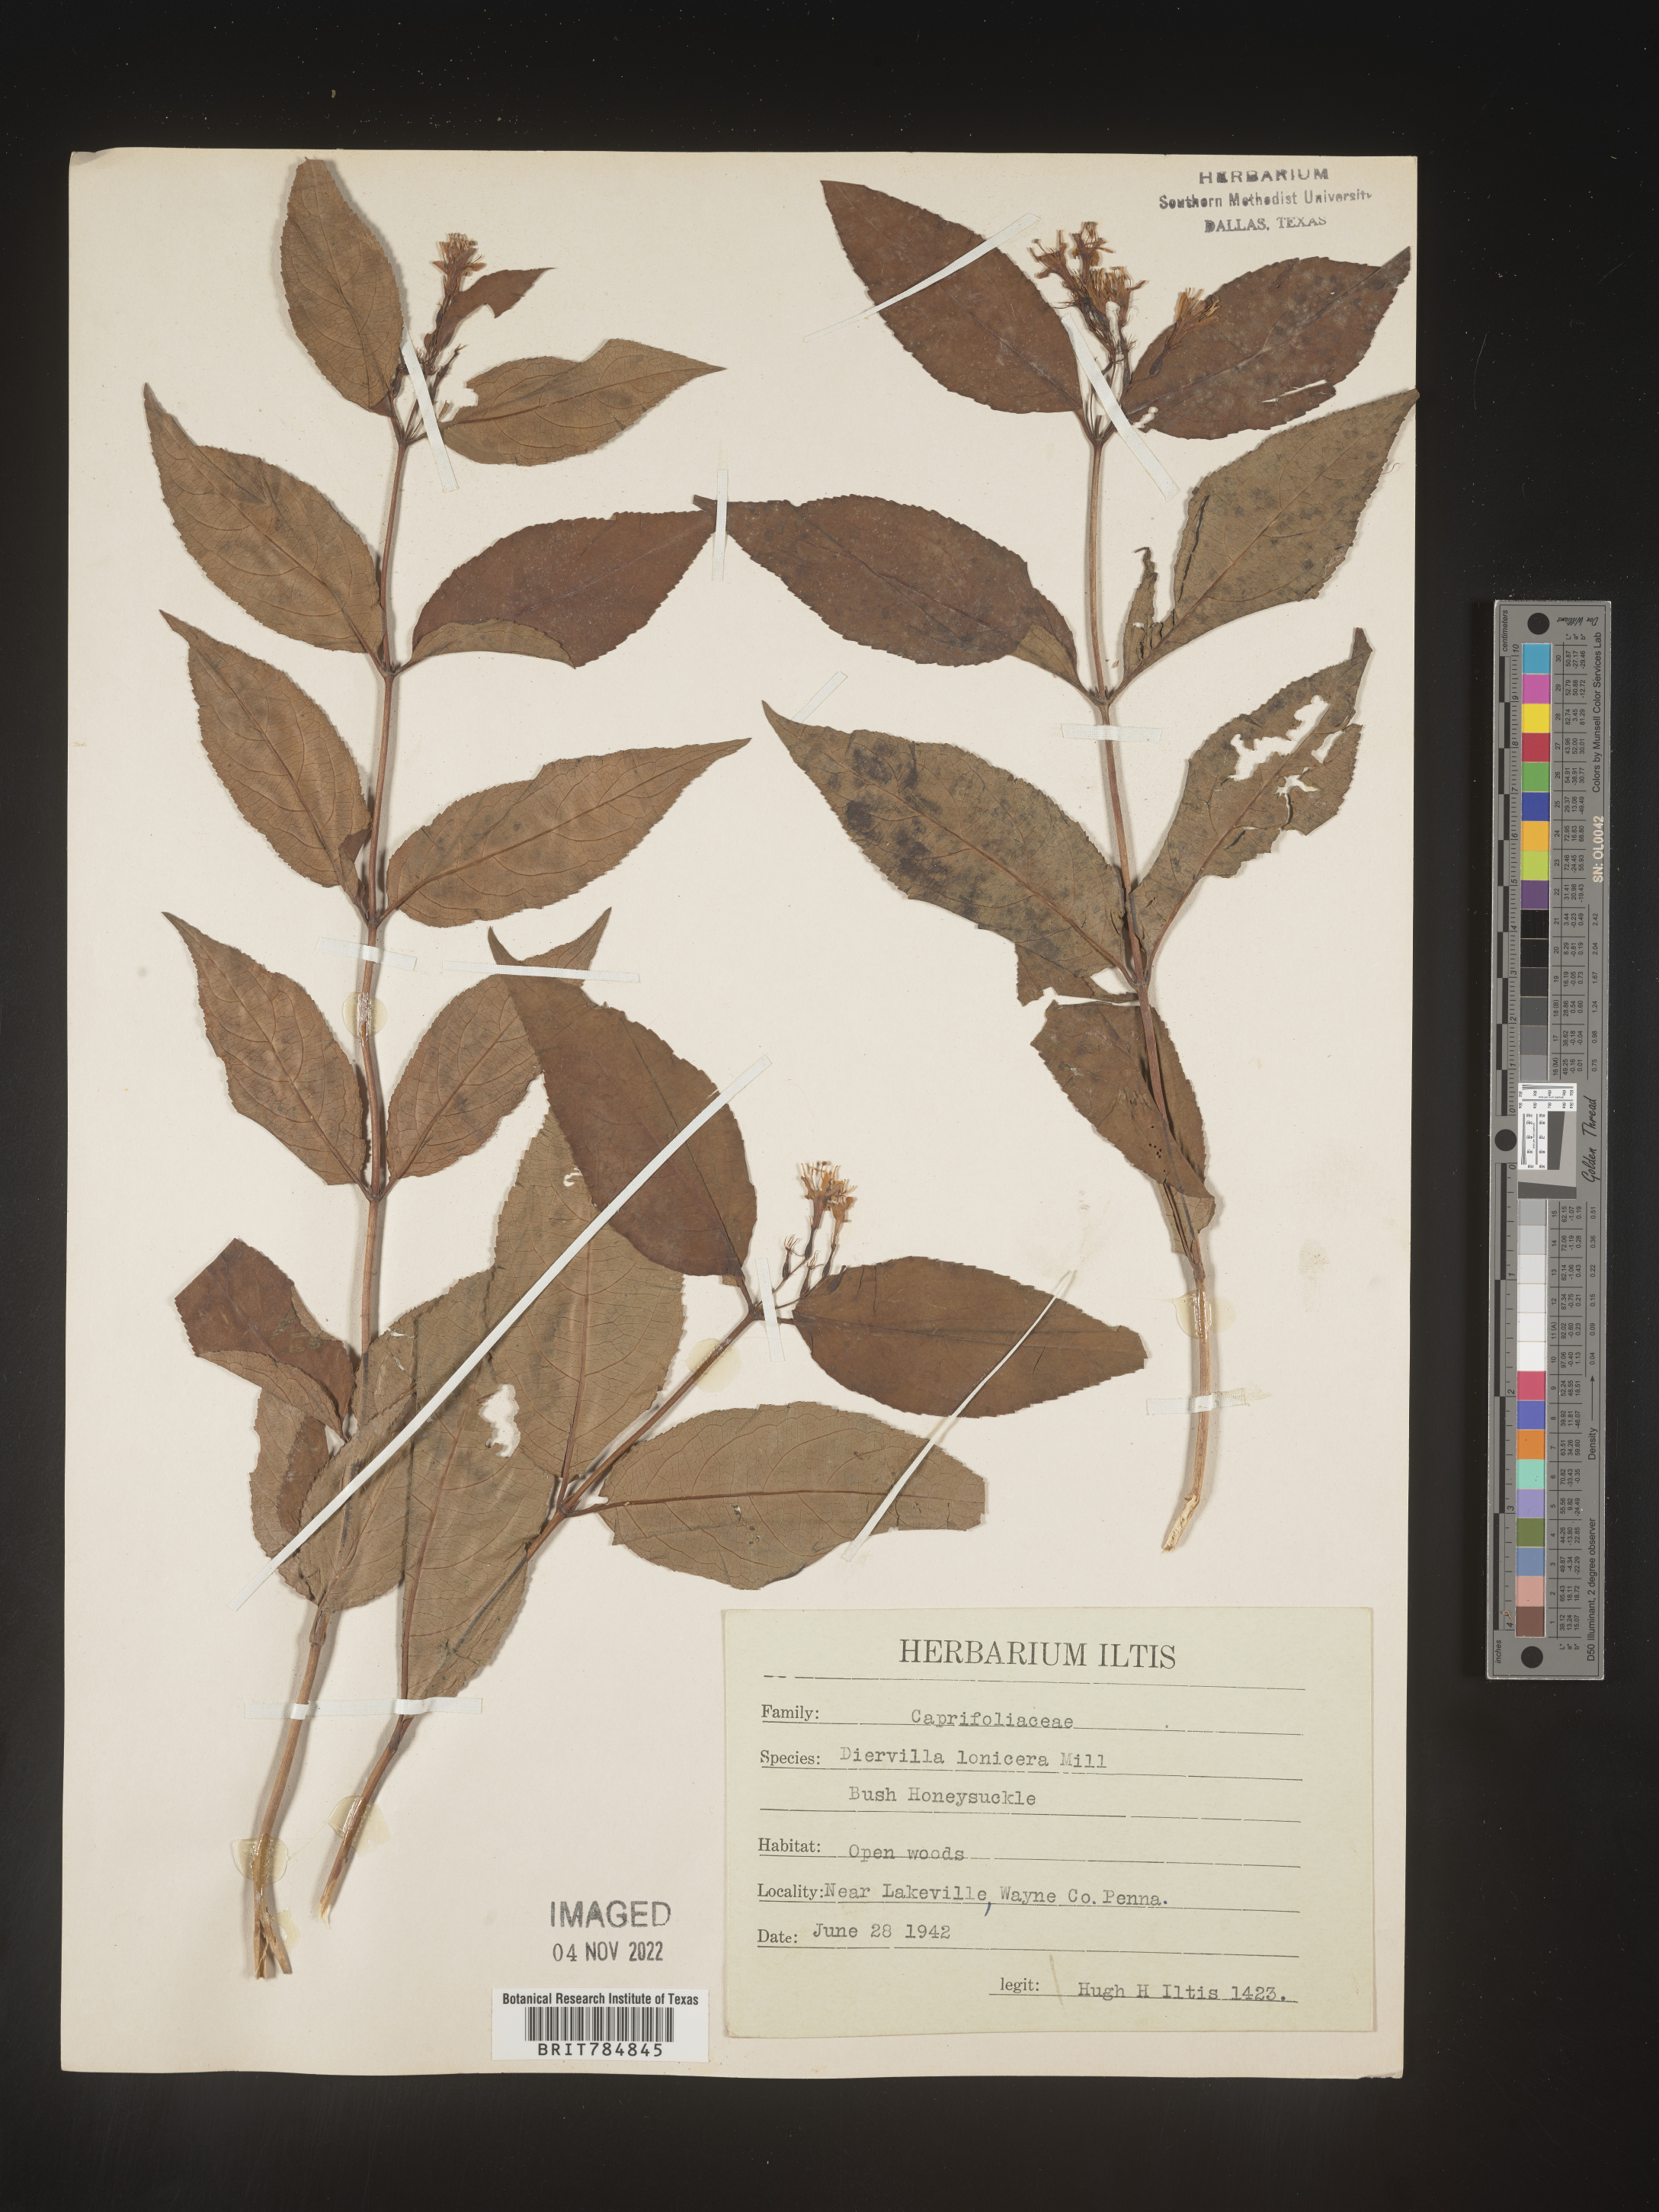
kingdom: Plantae
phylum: Tracheophyta
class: Magnoliopsida
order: Dipsacales
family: Caprifoliaceae
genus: Diervilla
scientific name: Diervilla lonicera
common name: Bush-honeysuckle
